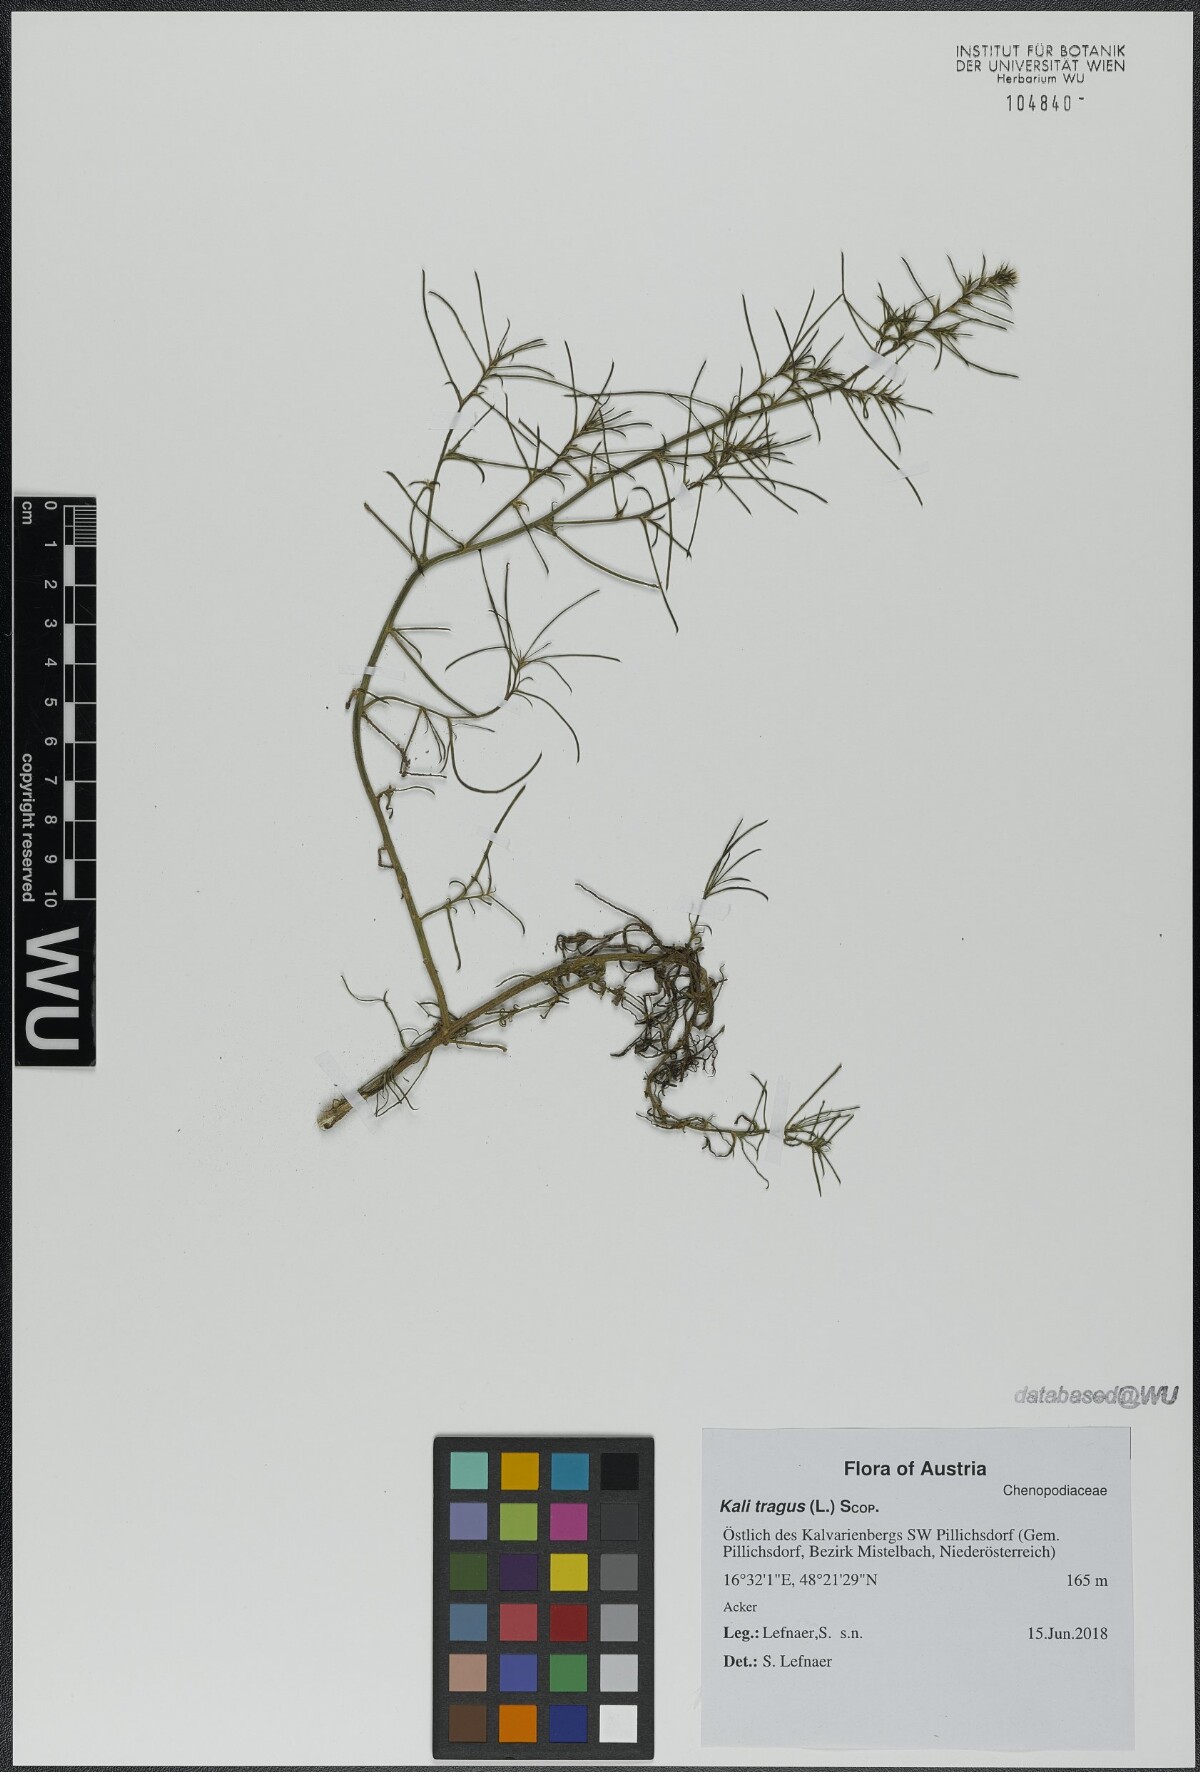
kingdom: Plantae
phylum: Tracheophyta
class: Magnoliopsida
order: Caryophyllales
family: Amaranthaceae
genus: Salsola
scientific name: Salsola tragus
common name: Prickly russian thistle
